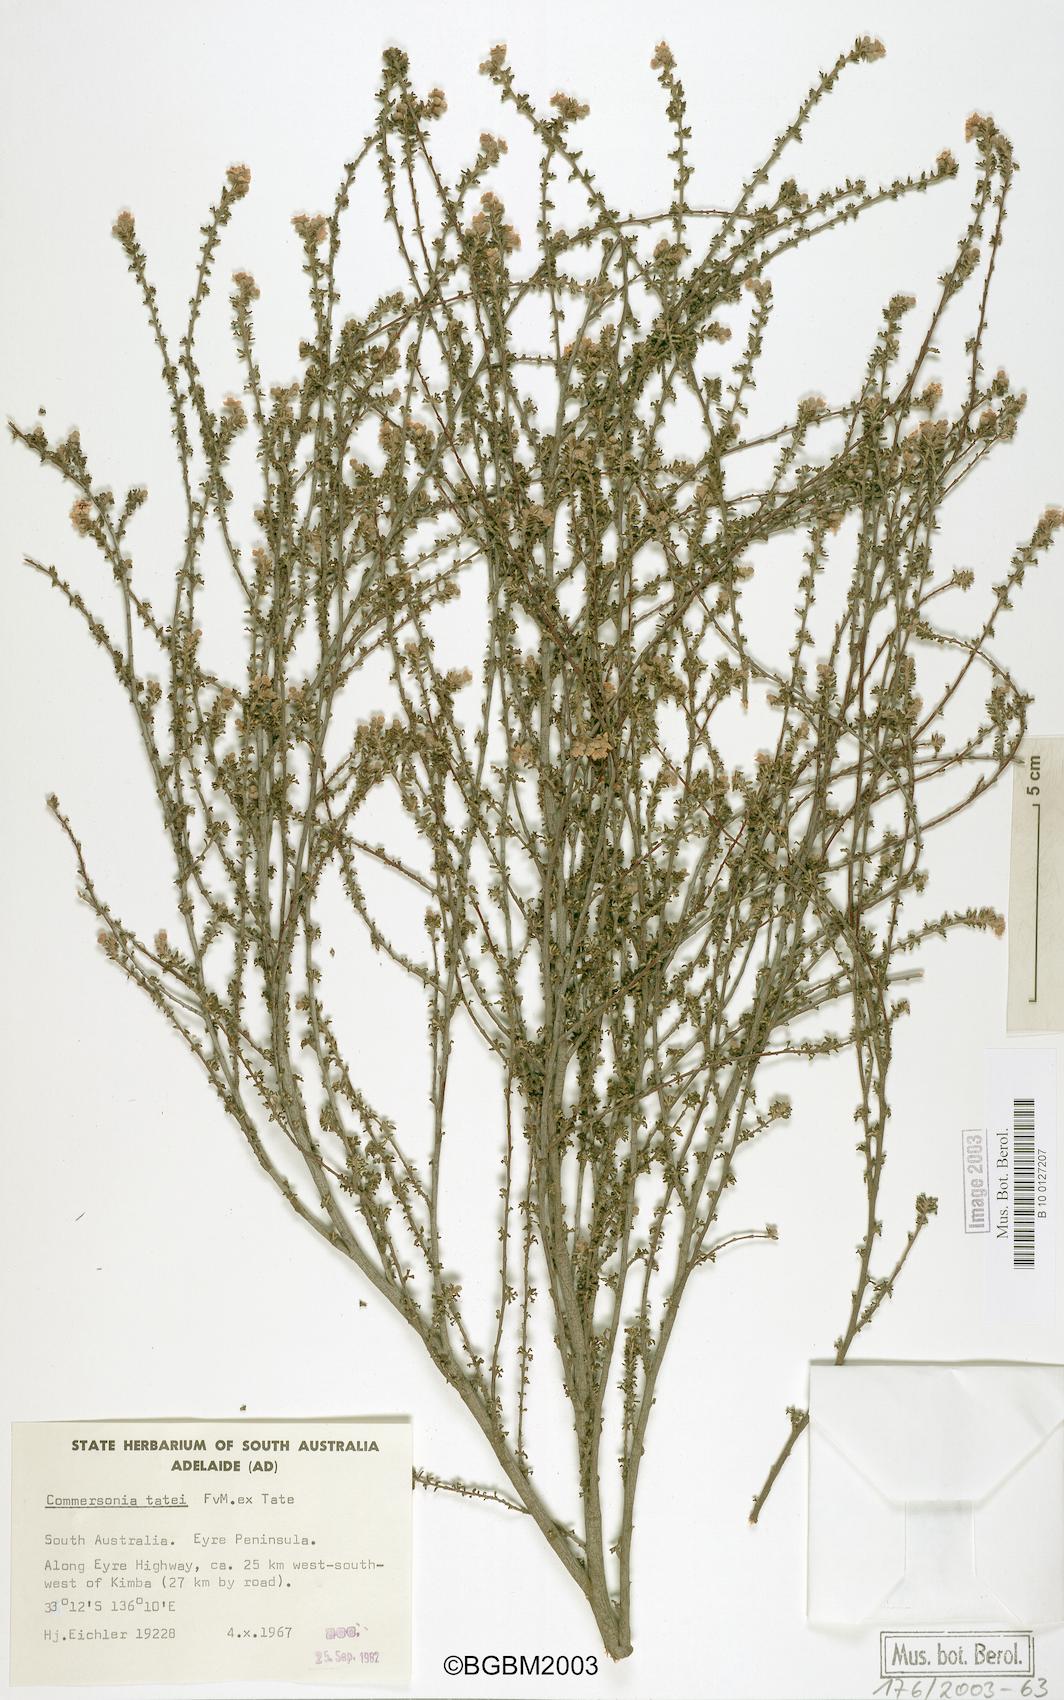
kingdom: Plantae
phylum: Tracheophyta
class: Magnoliopsida
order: Malvales
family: Malvaceae
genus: Androcalva
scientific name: Androcalva tatei
